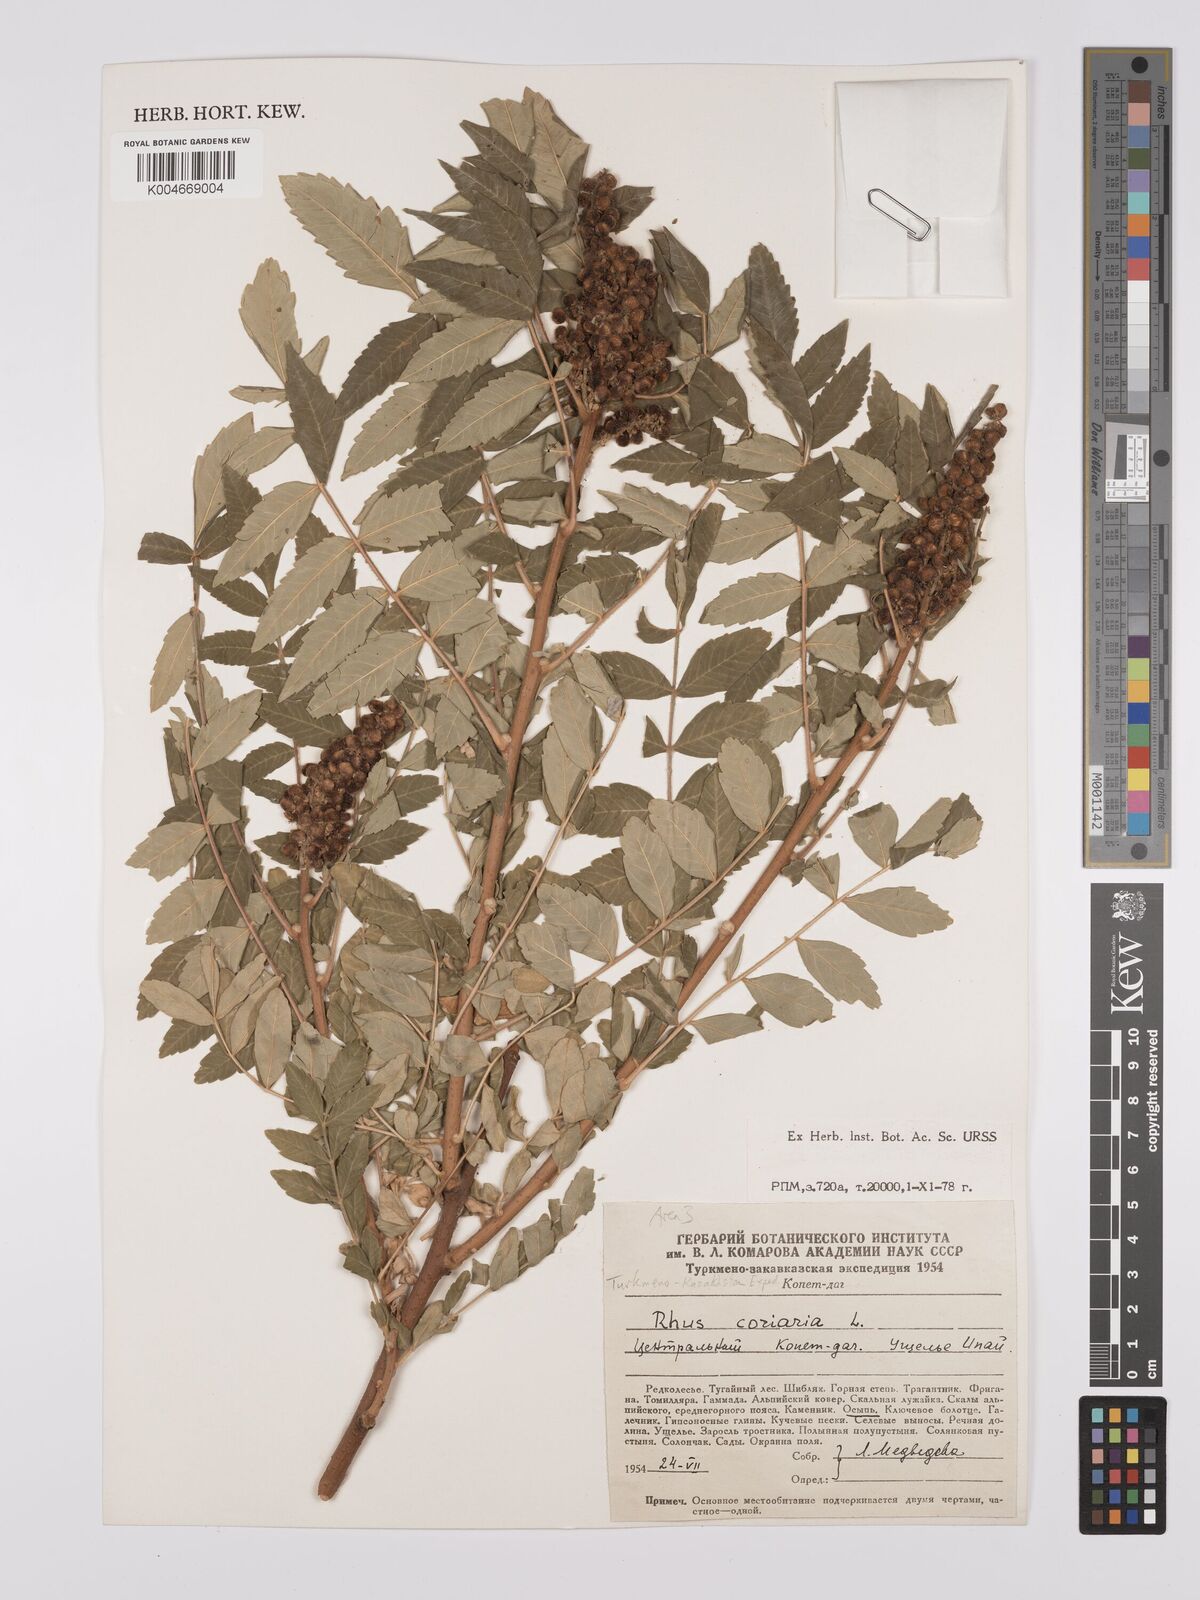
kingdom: Plantae
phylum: Tracheophyta
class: Magnoliopsida
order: Sapindales
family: Anacardiaceae
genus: Rhus
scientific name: Rhus coriaria
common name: Tanner's sumach
